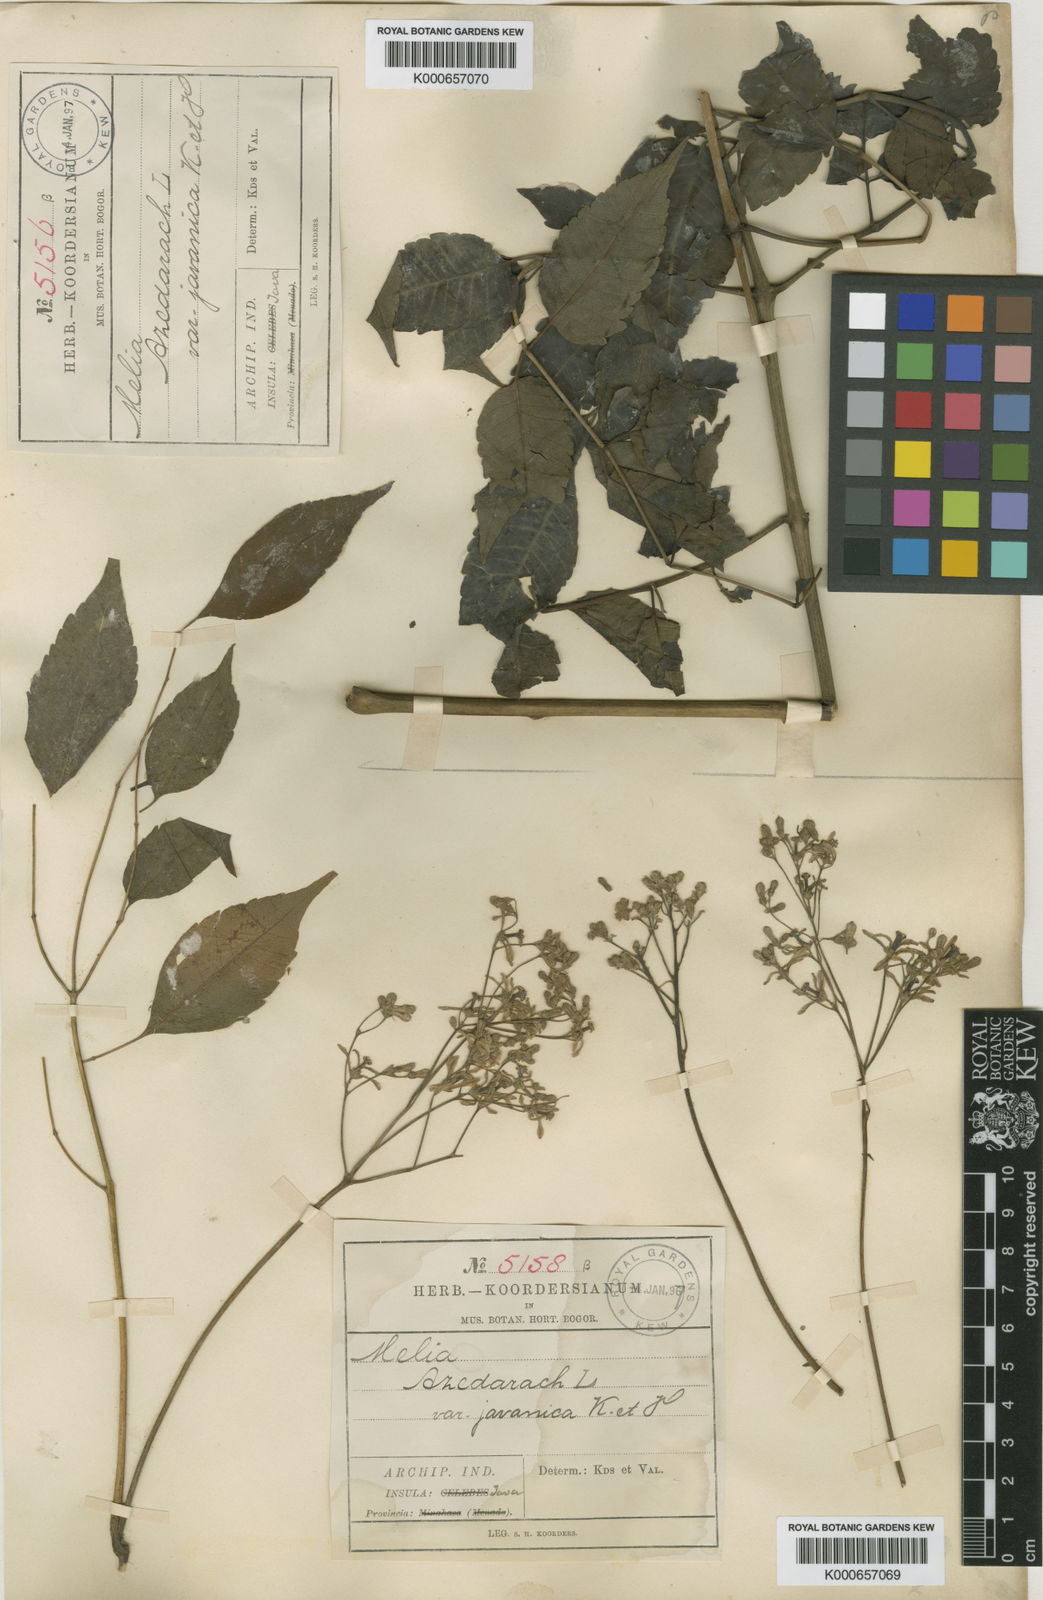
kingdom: Plantae
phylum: Tracheophyta
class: Magnoliopsida
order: Sapindales
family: Meliaceae
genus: Melia
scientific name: Melia azedarach
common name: Chinaberrytree
